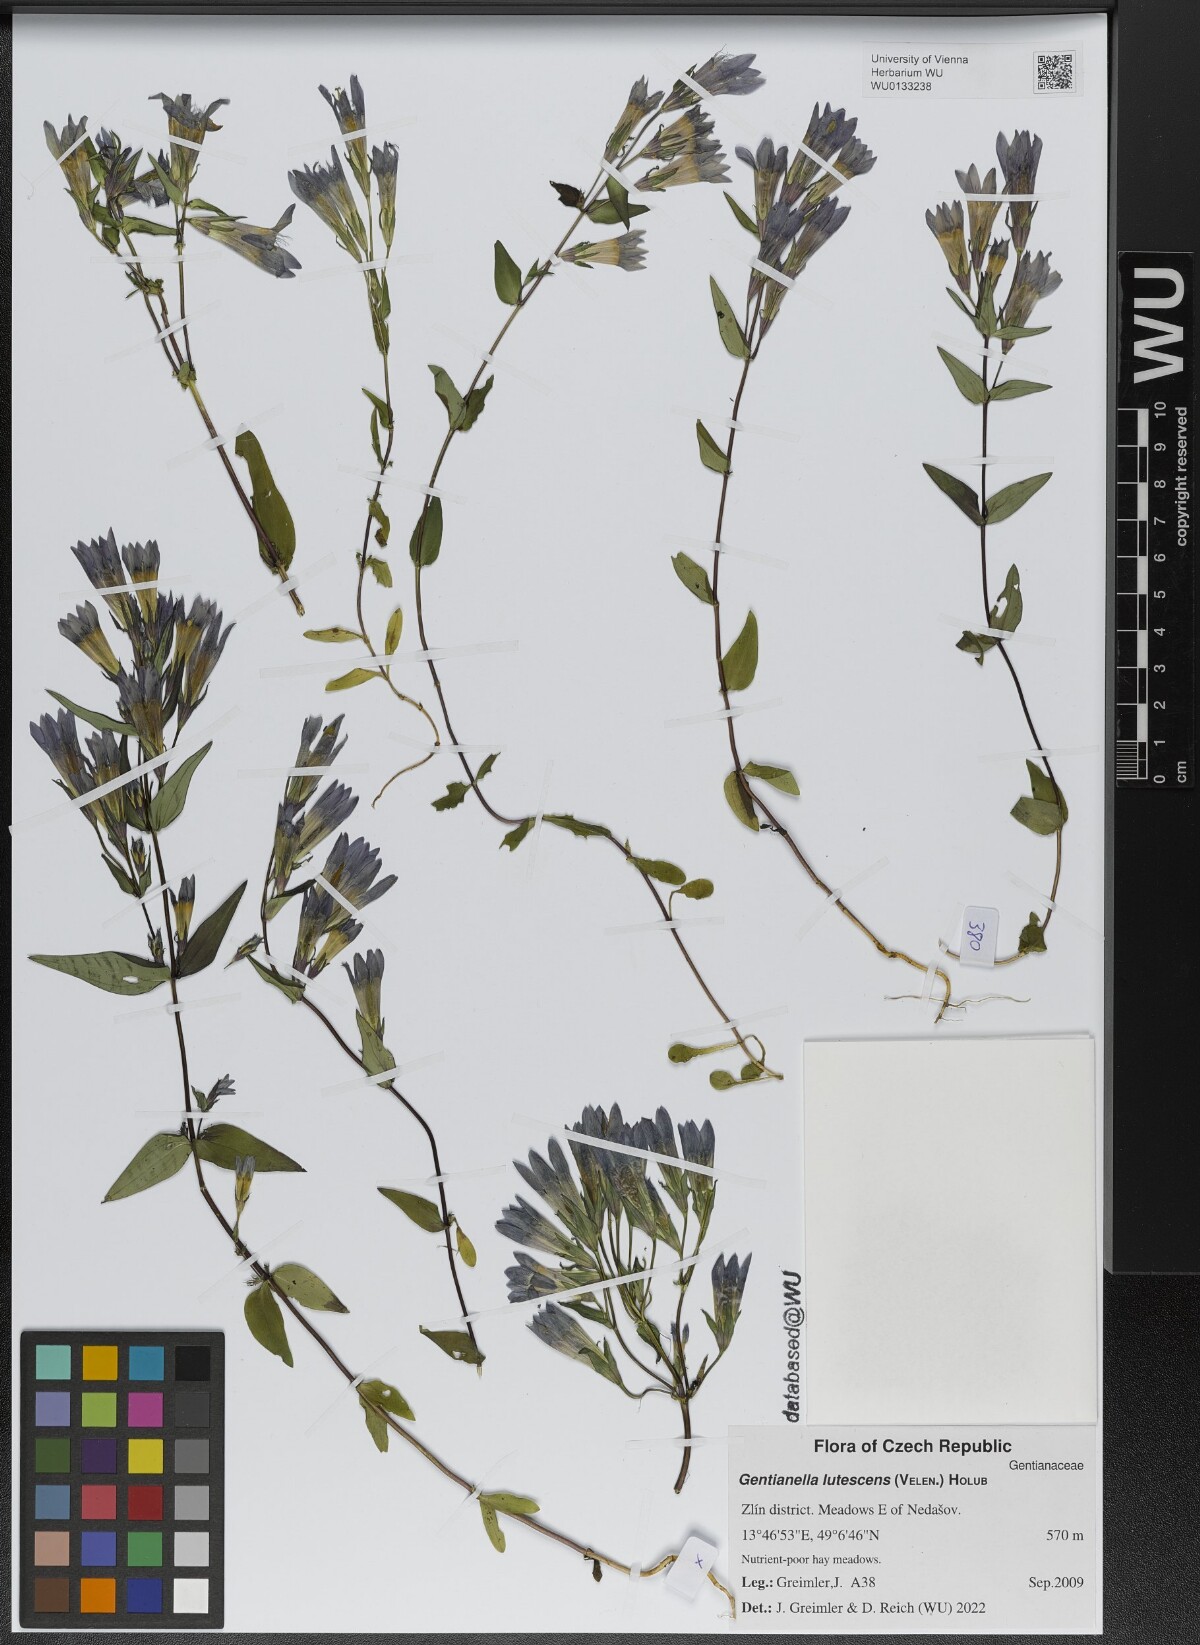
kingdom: Plantae
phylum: Tracheophyta
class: Magnoliopsida
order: Gentianales
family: Gentianaceae
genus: Gentianella
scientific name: Gentianella praecox
